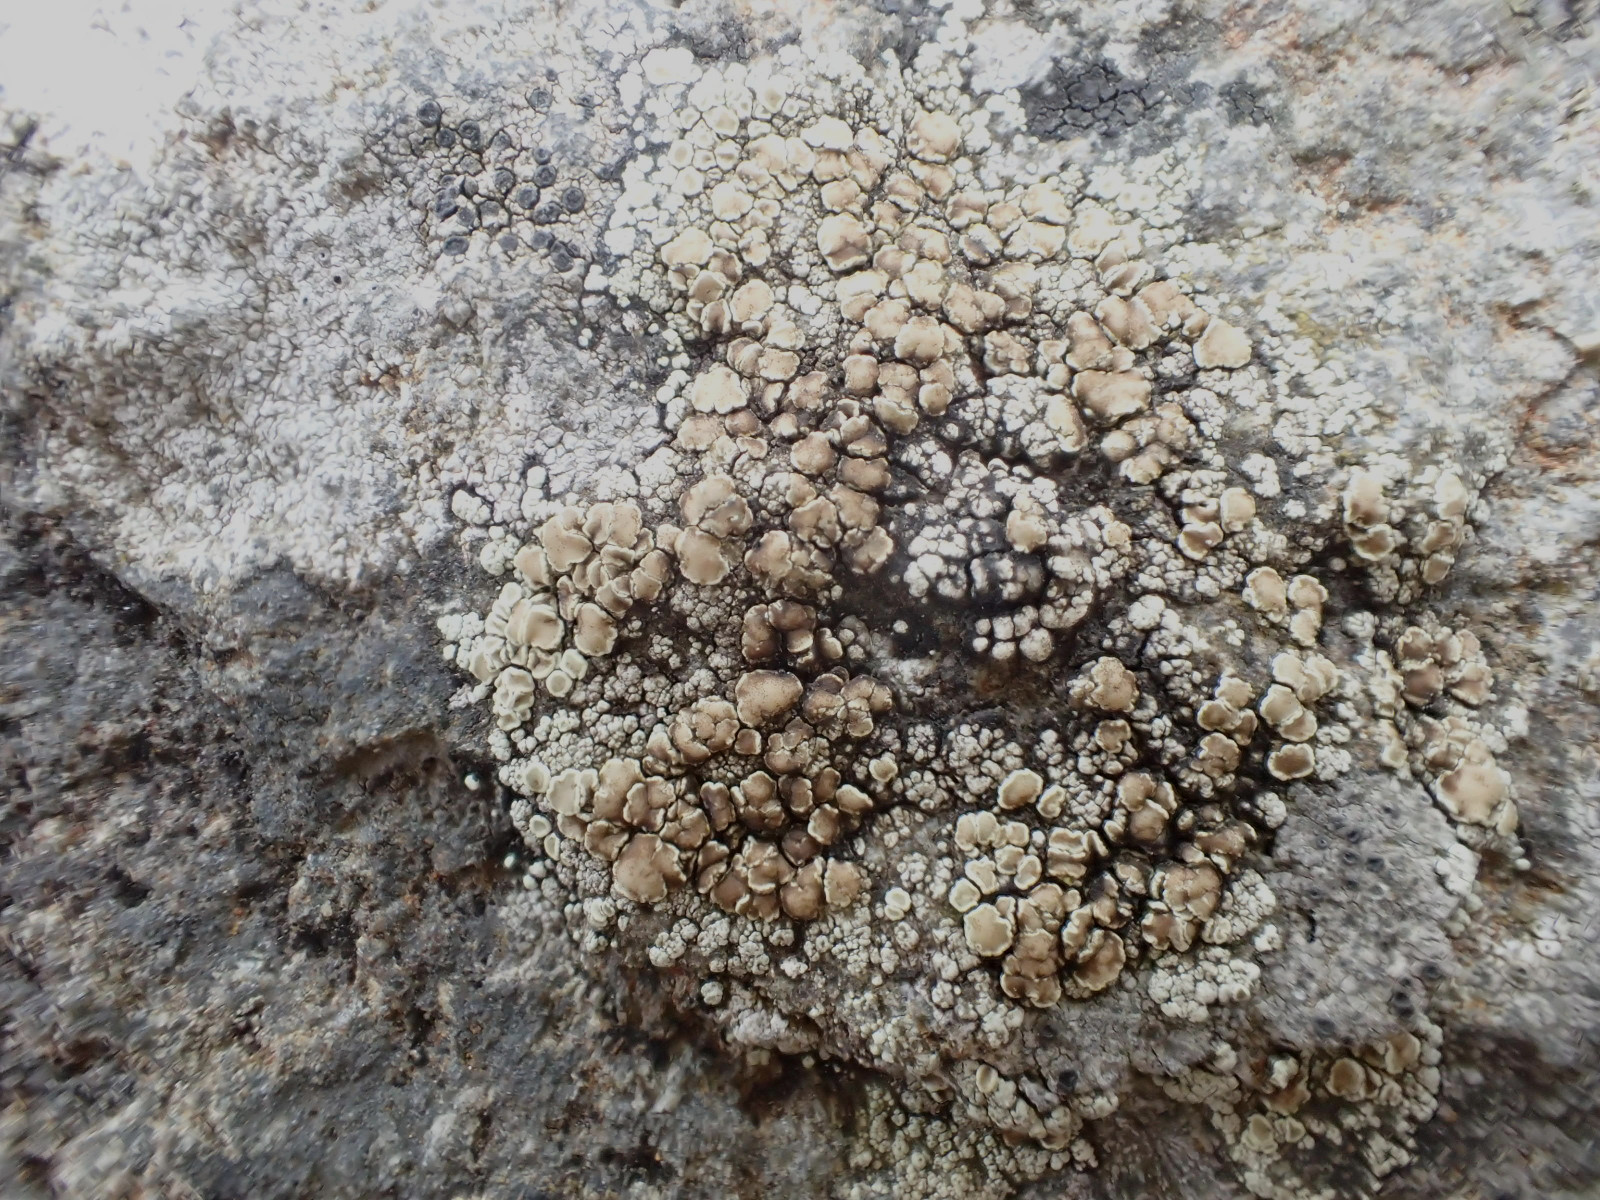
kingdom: Fungi
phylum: Ascomycota
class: Lecanoromycetes
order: Lecanorales
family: Lecanoraceae
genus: Protoparmeliopsis
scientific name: Protoparmeliopsis muralis
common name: randfliget kantskivelav
